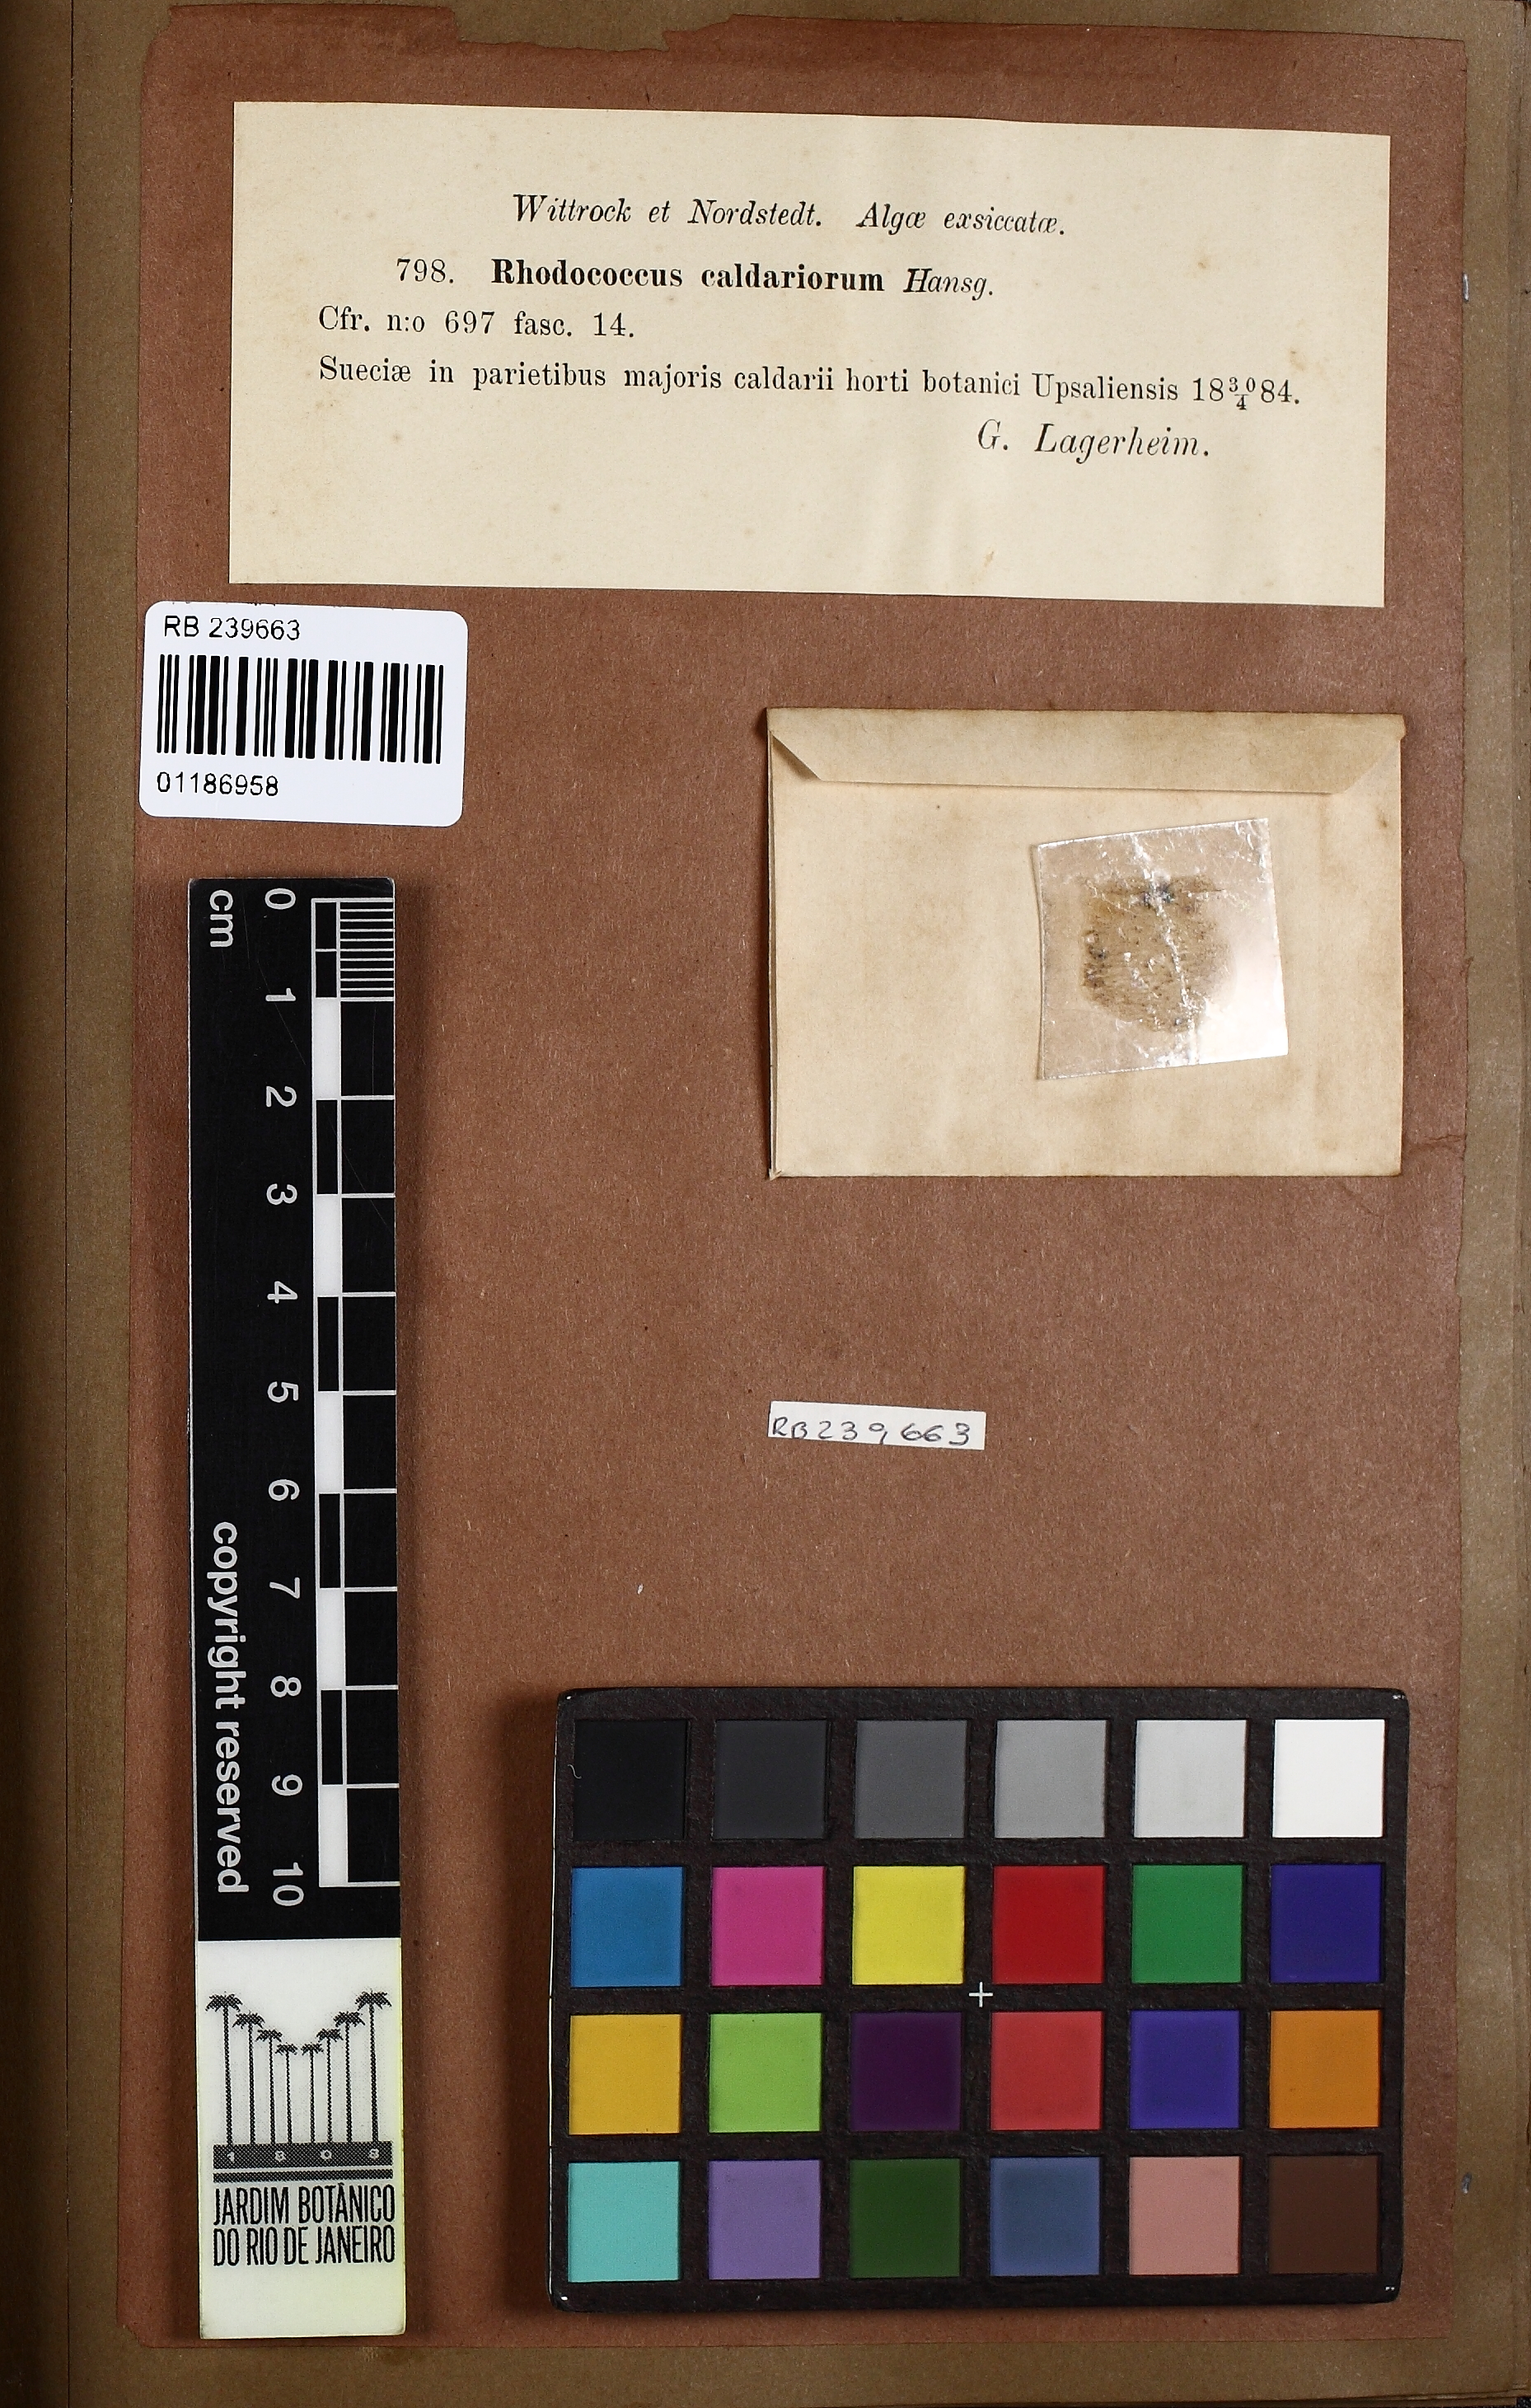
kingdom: Bacteria
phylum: Cyanobacteria
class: Cyanobacteriia
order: Cyanobacteriales
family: Chroococcaceae
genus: Rhodococcus
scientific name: Rhodococcus
